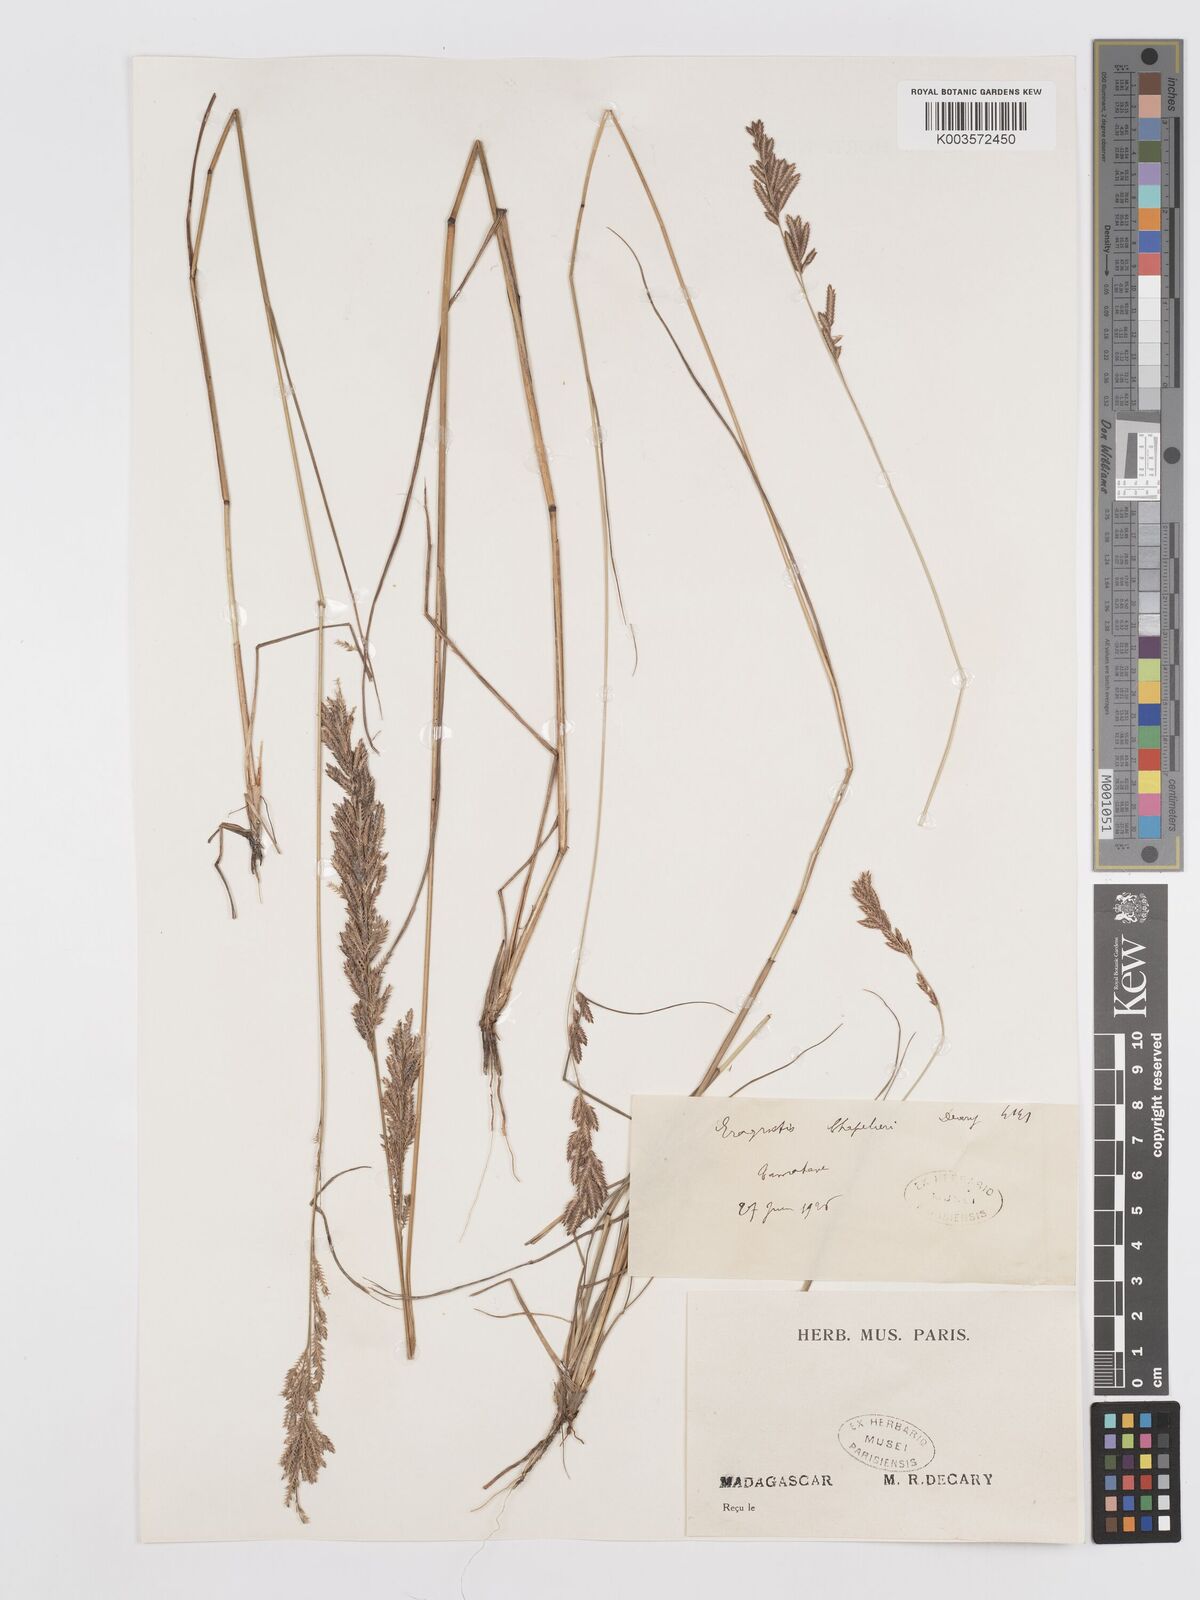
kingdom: Plantae
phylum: Tracheophyta
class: Liliopsida
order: Poales
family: Poaceae
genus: Eragrostis
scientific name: Eragrostis chapelieri
